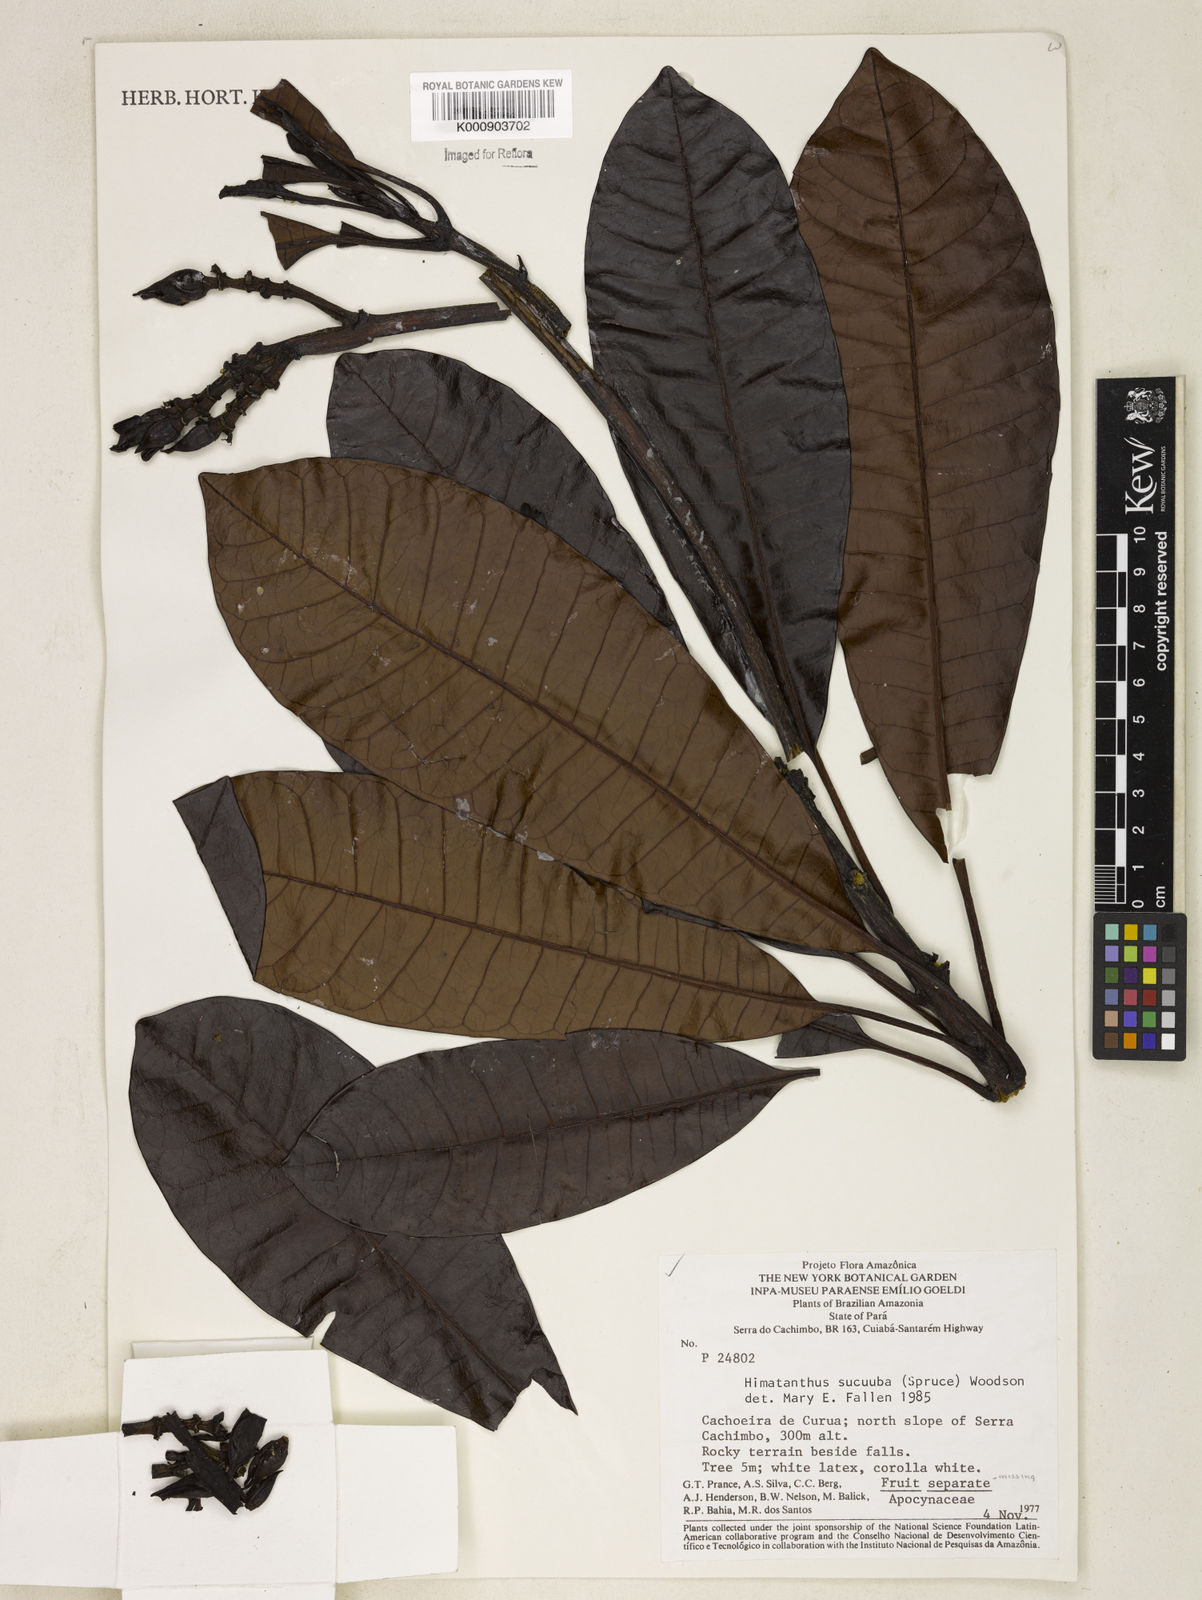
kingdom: Plantae
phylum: Tracheophyta
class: Magnoliopsida
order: Gentianales
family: Apocynaceae
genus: Himatanthus
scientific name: Himatanthus articulatus
